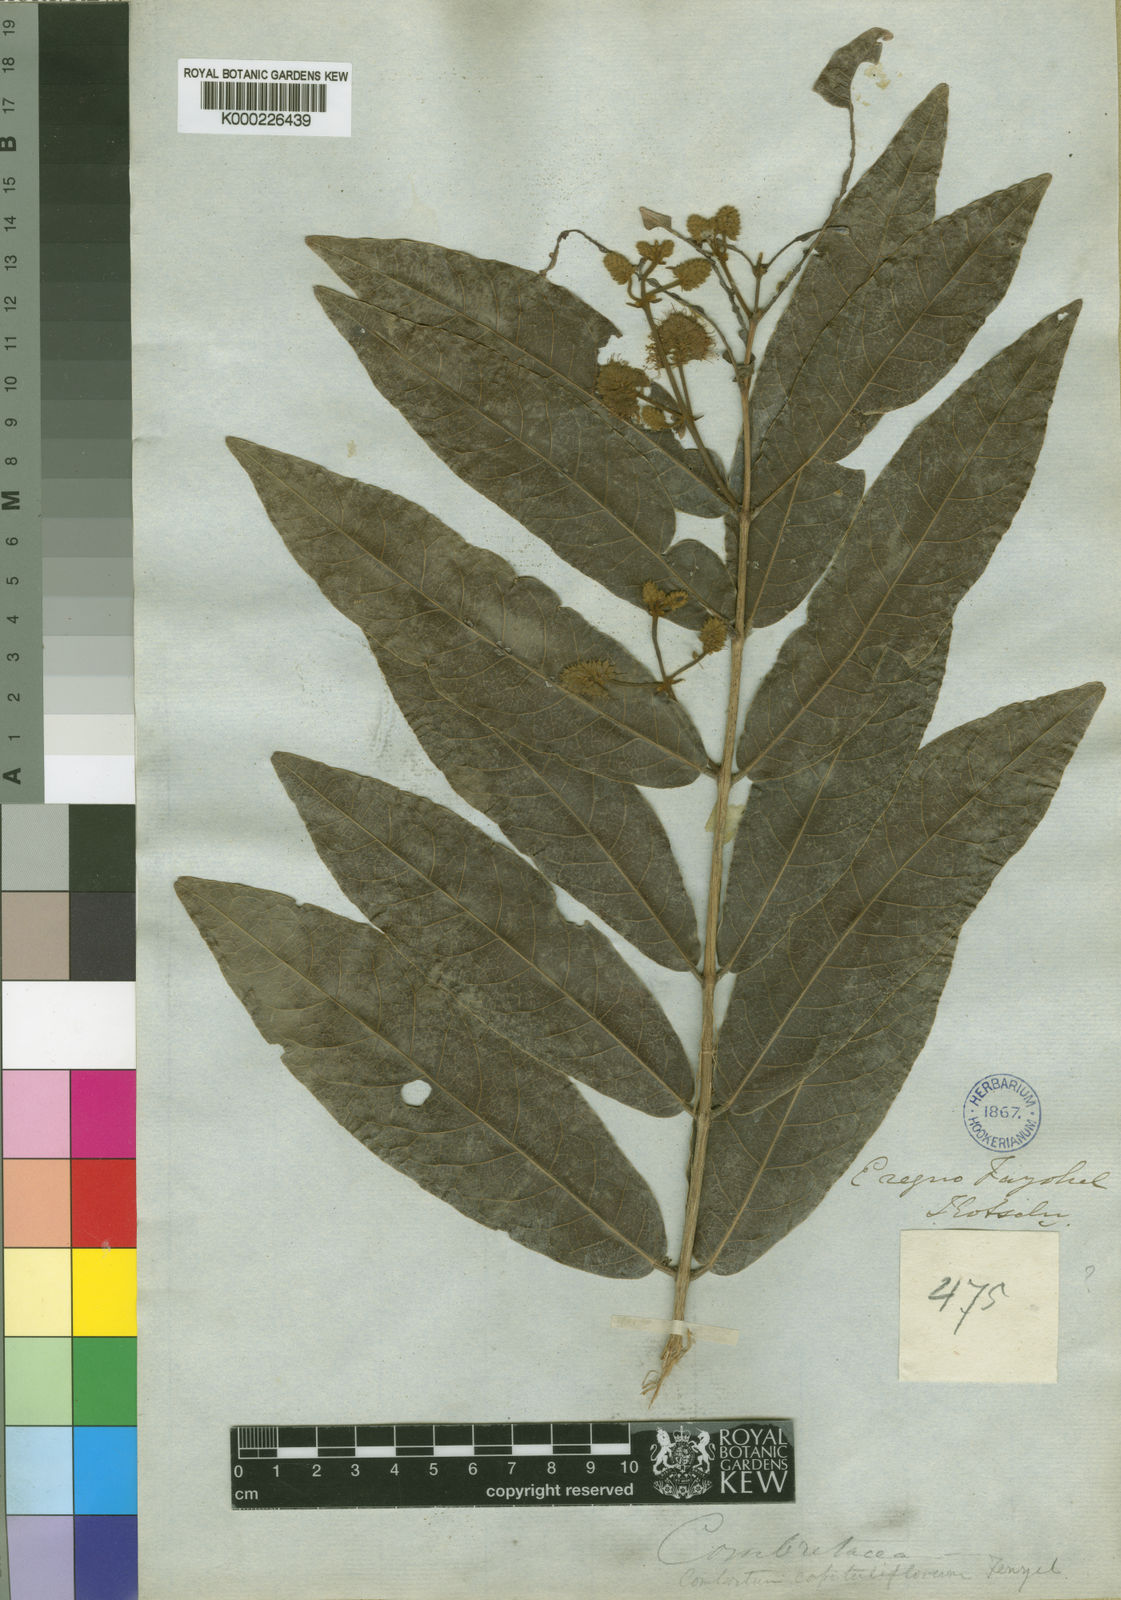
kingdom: Plantae
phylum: Tracheophyta
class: Magnoliopsida
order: Myrtales
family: Combretaceae
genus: Combretum
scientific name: Combretum capituliflorum
